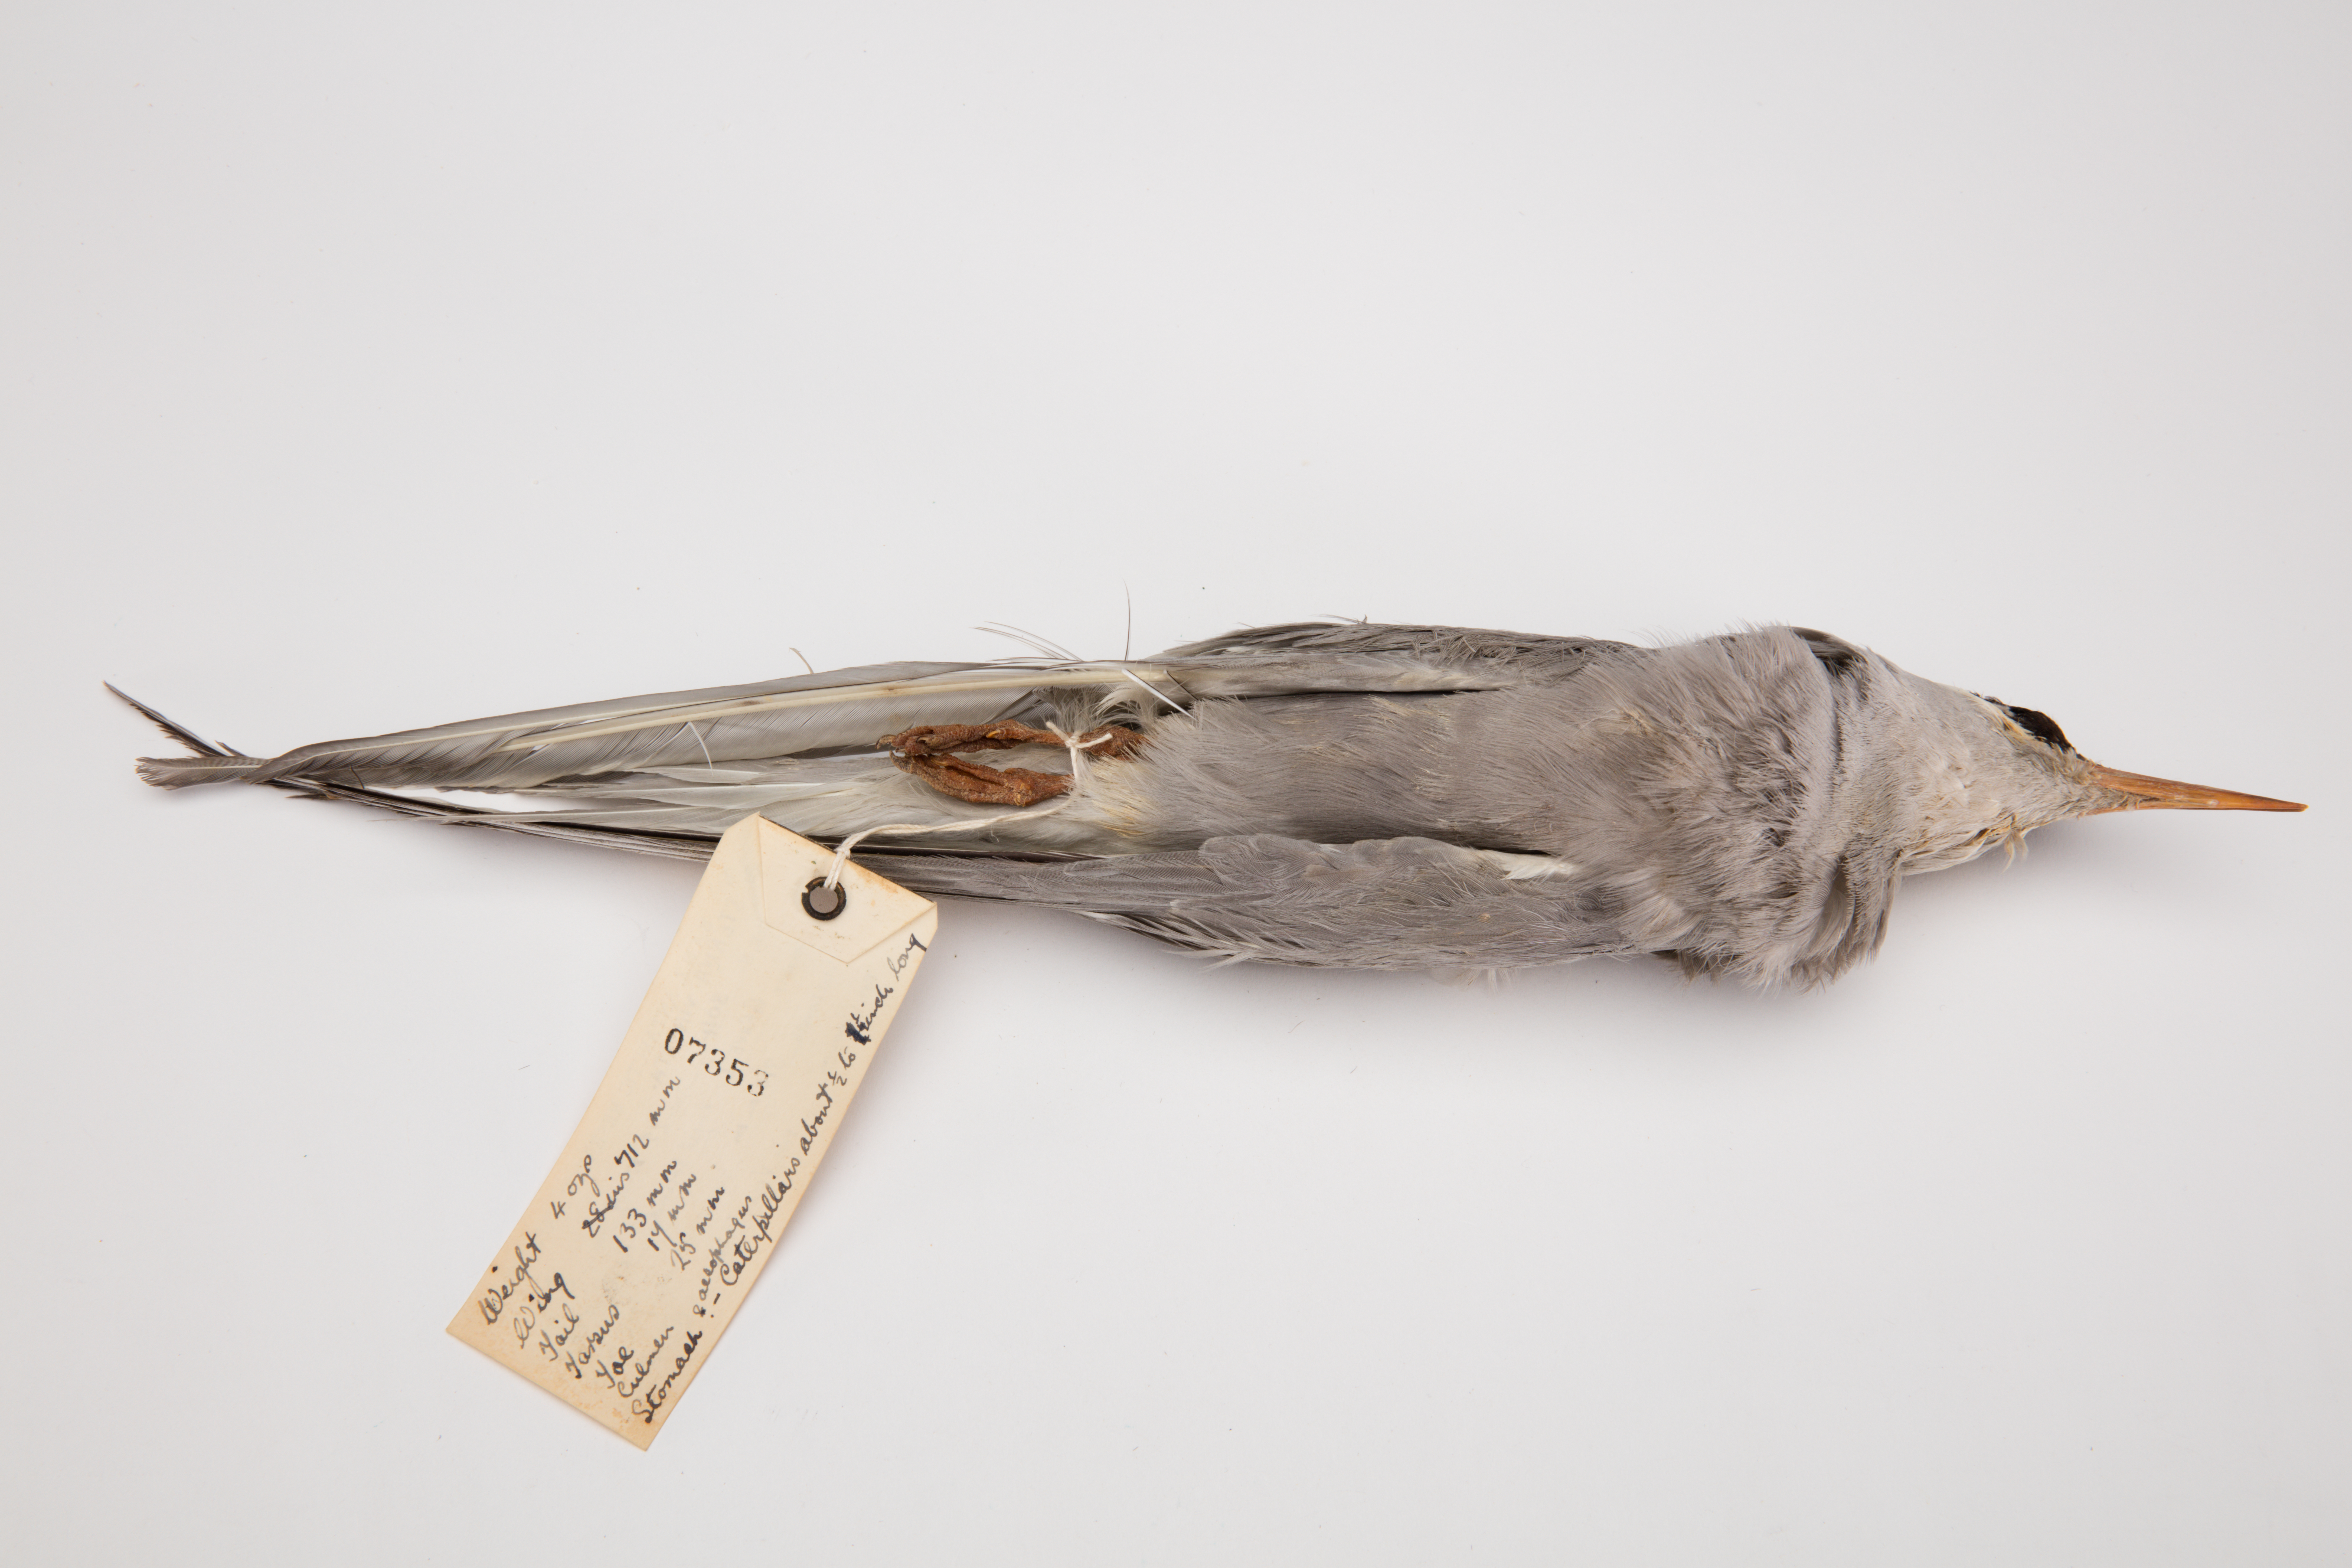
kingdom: Animalia
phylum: Chordata
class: Aves
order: Charadriiformes
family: Laridae
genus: Sterna
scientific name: Sterna virgata
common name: Kerguelen tern
